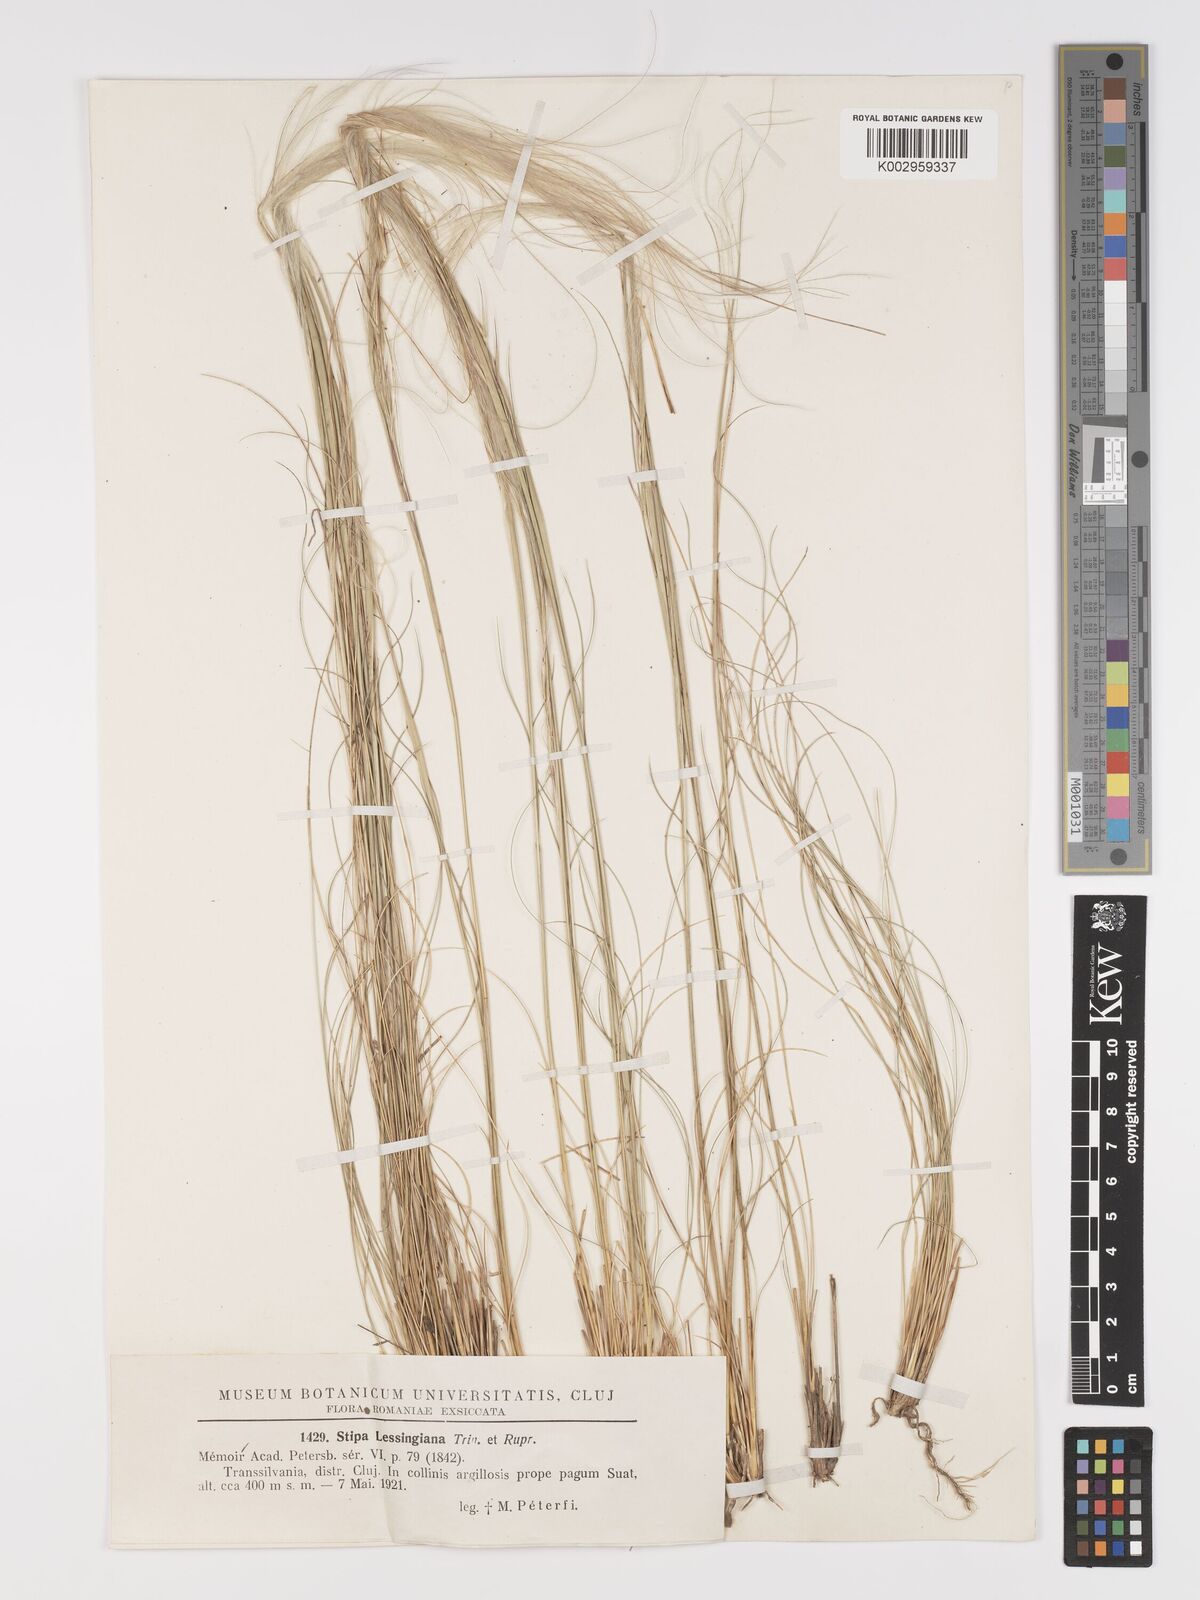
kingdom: Plantae
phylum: Tracheophyta
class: Liliopsida
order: Poales
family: Poaceae
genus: Stipa
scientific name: Stipa lessingiana
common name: Needle grass
